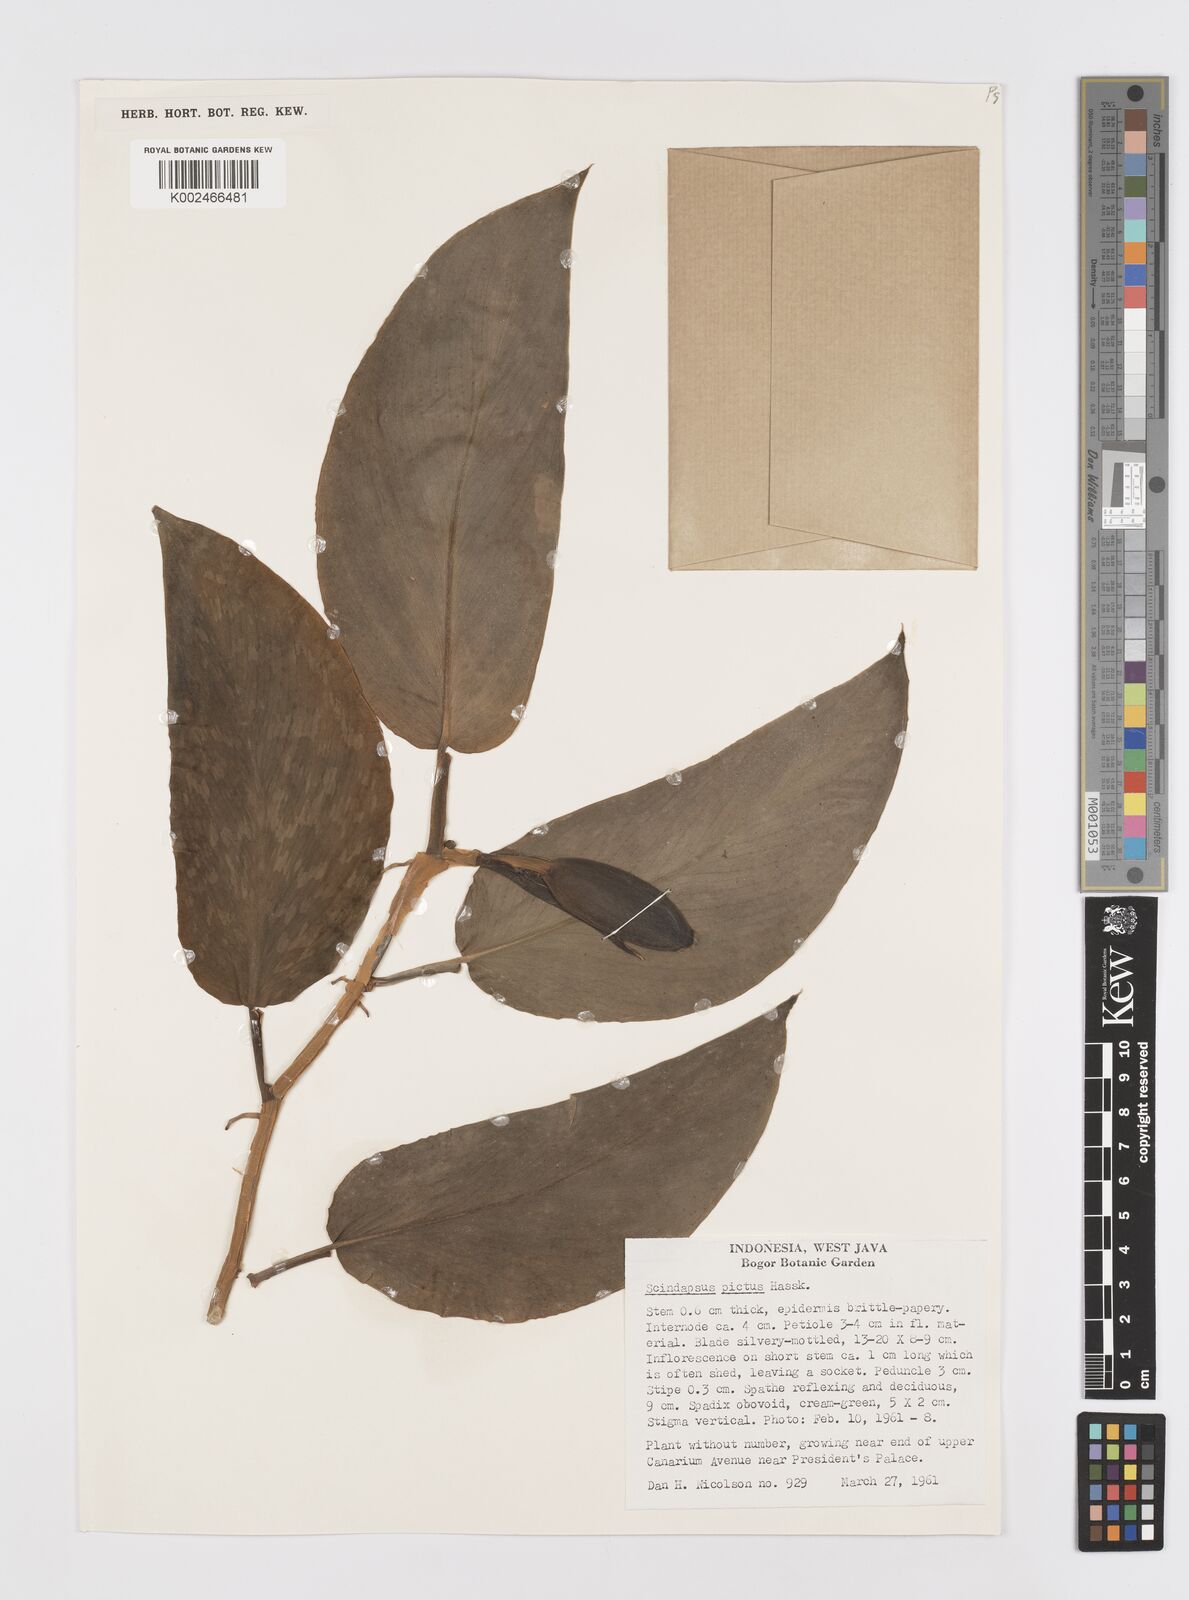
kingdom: Plantae
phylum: Tracheophyta
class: Liliopsida
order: Alismatales
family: Araceae
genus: Scindapsus
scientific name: Scindapsus pictus
